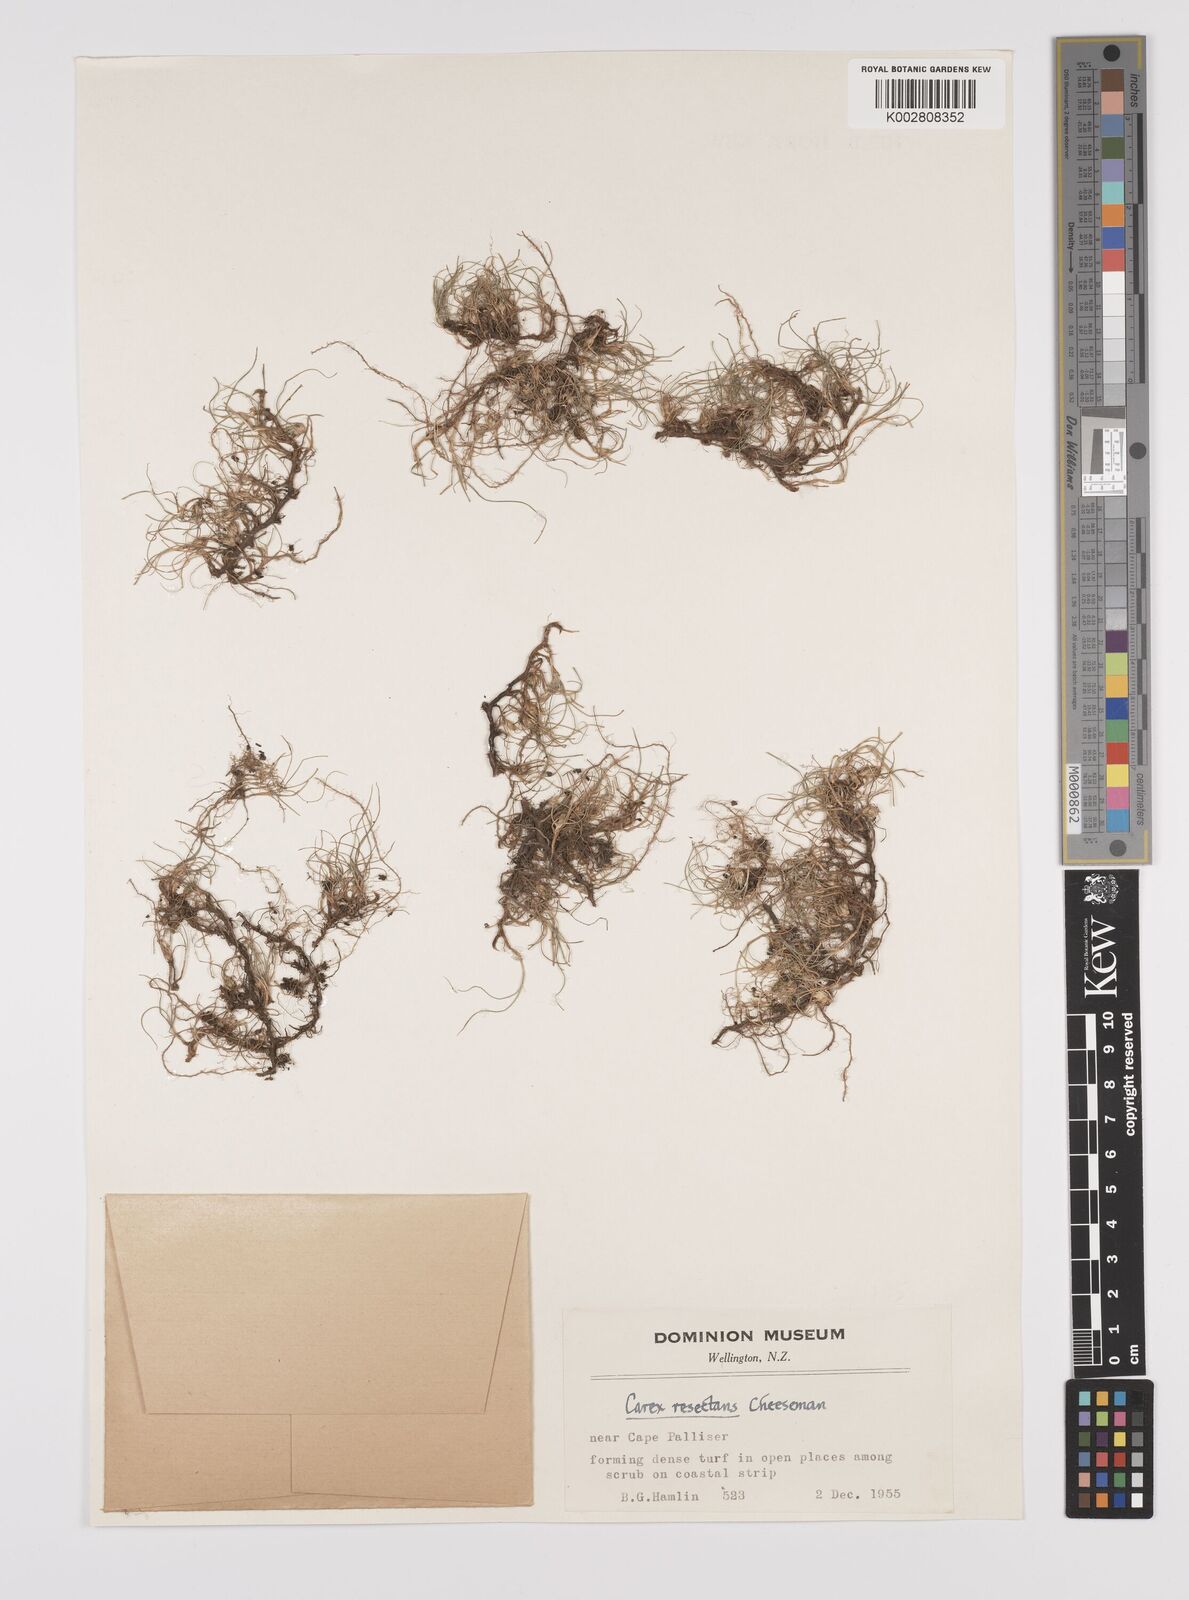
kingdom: Plantae
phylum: Tracheophyta
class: Liliopsida
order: Poales
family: Cyperaceae
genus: Carex
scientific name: Carex resectans
